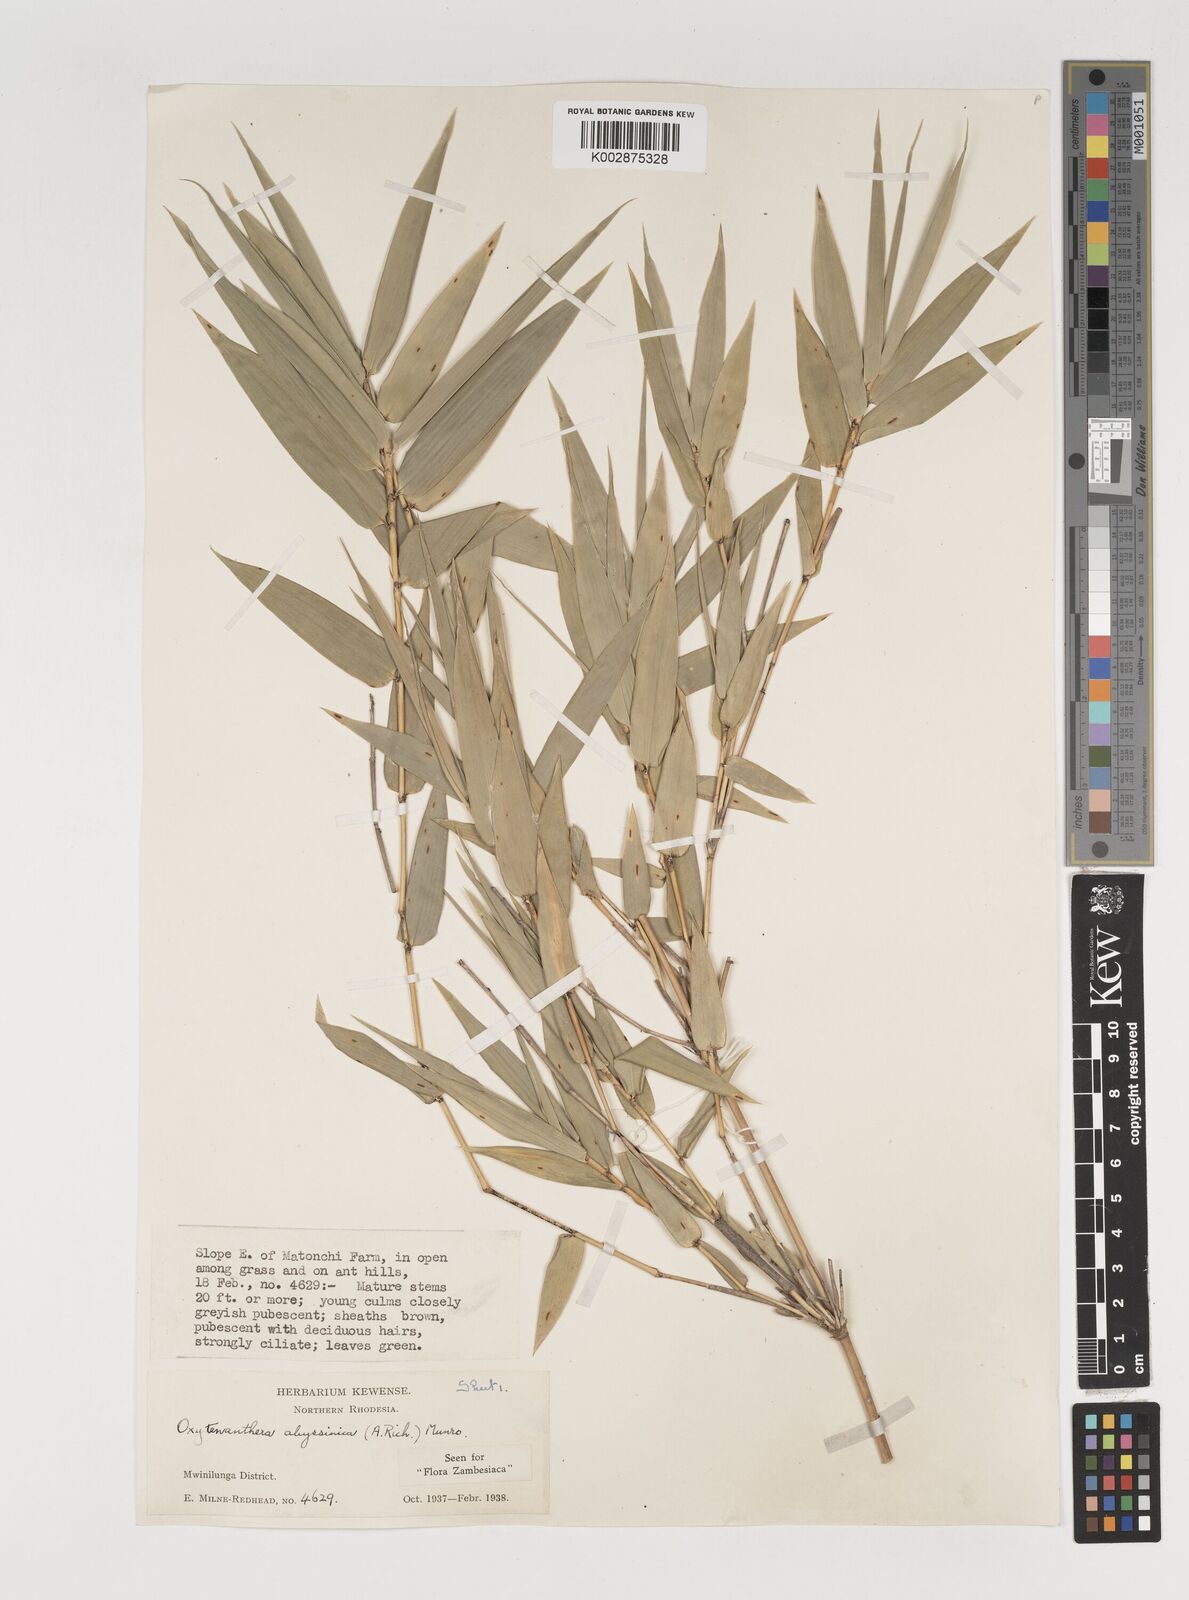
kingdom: Plantae
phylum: Tracheophyta
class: Liliopsida
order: Poales
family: Poaceae
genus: Oxytenanthera
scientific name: Oxytenanthera abyssinica
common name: Wine bamboo
